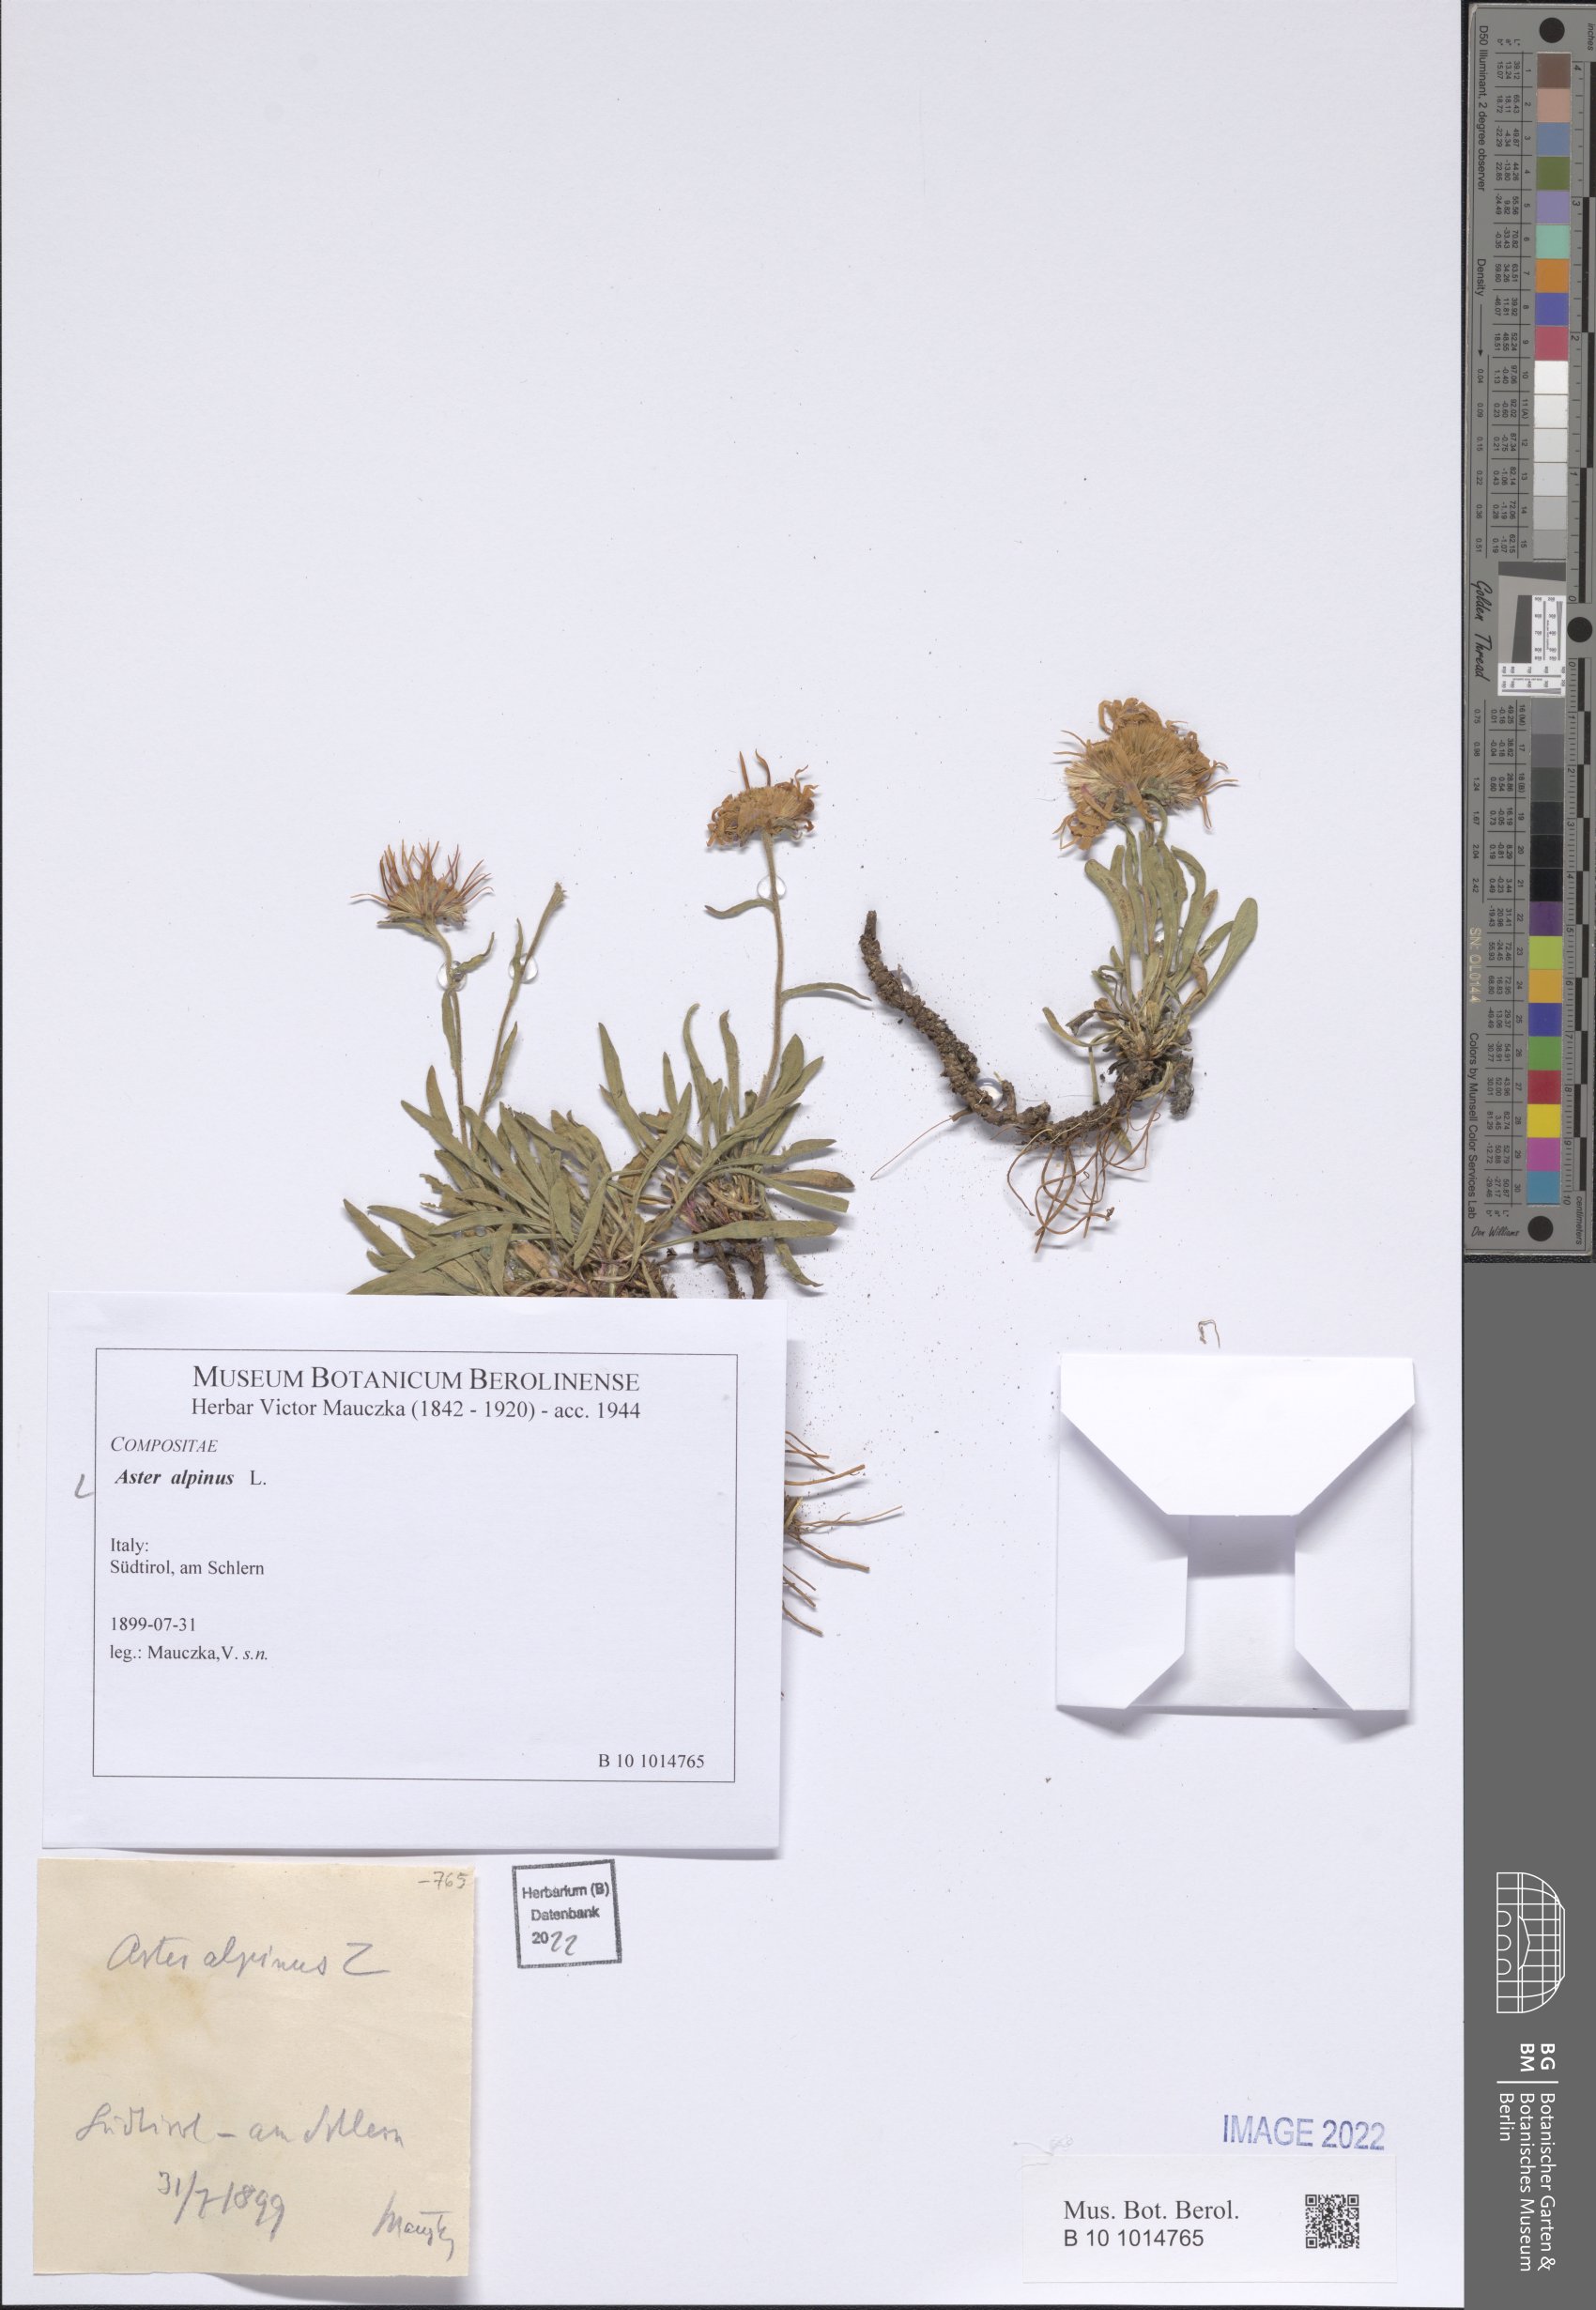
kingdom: Plantae
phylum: Tracheophyta
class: Magnoliopsida
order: Asterales
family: Asteraceae
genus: Aster
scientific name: Aster alpinus
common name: Alpine aster
